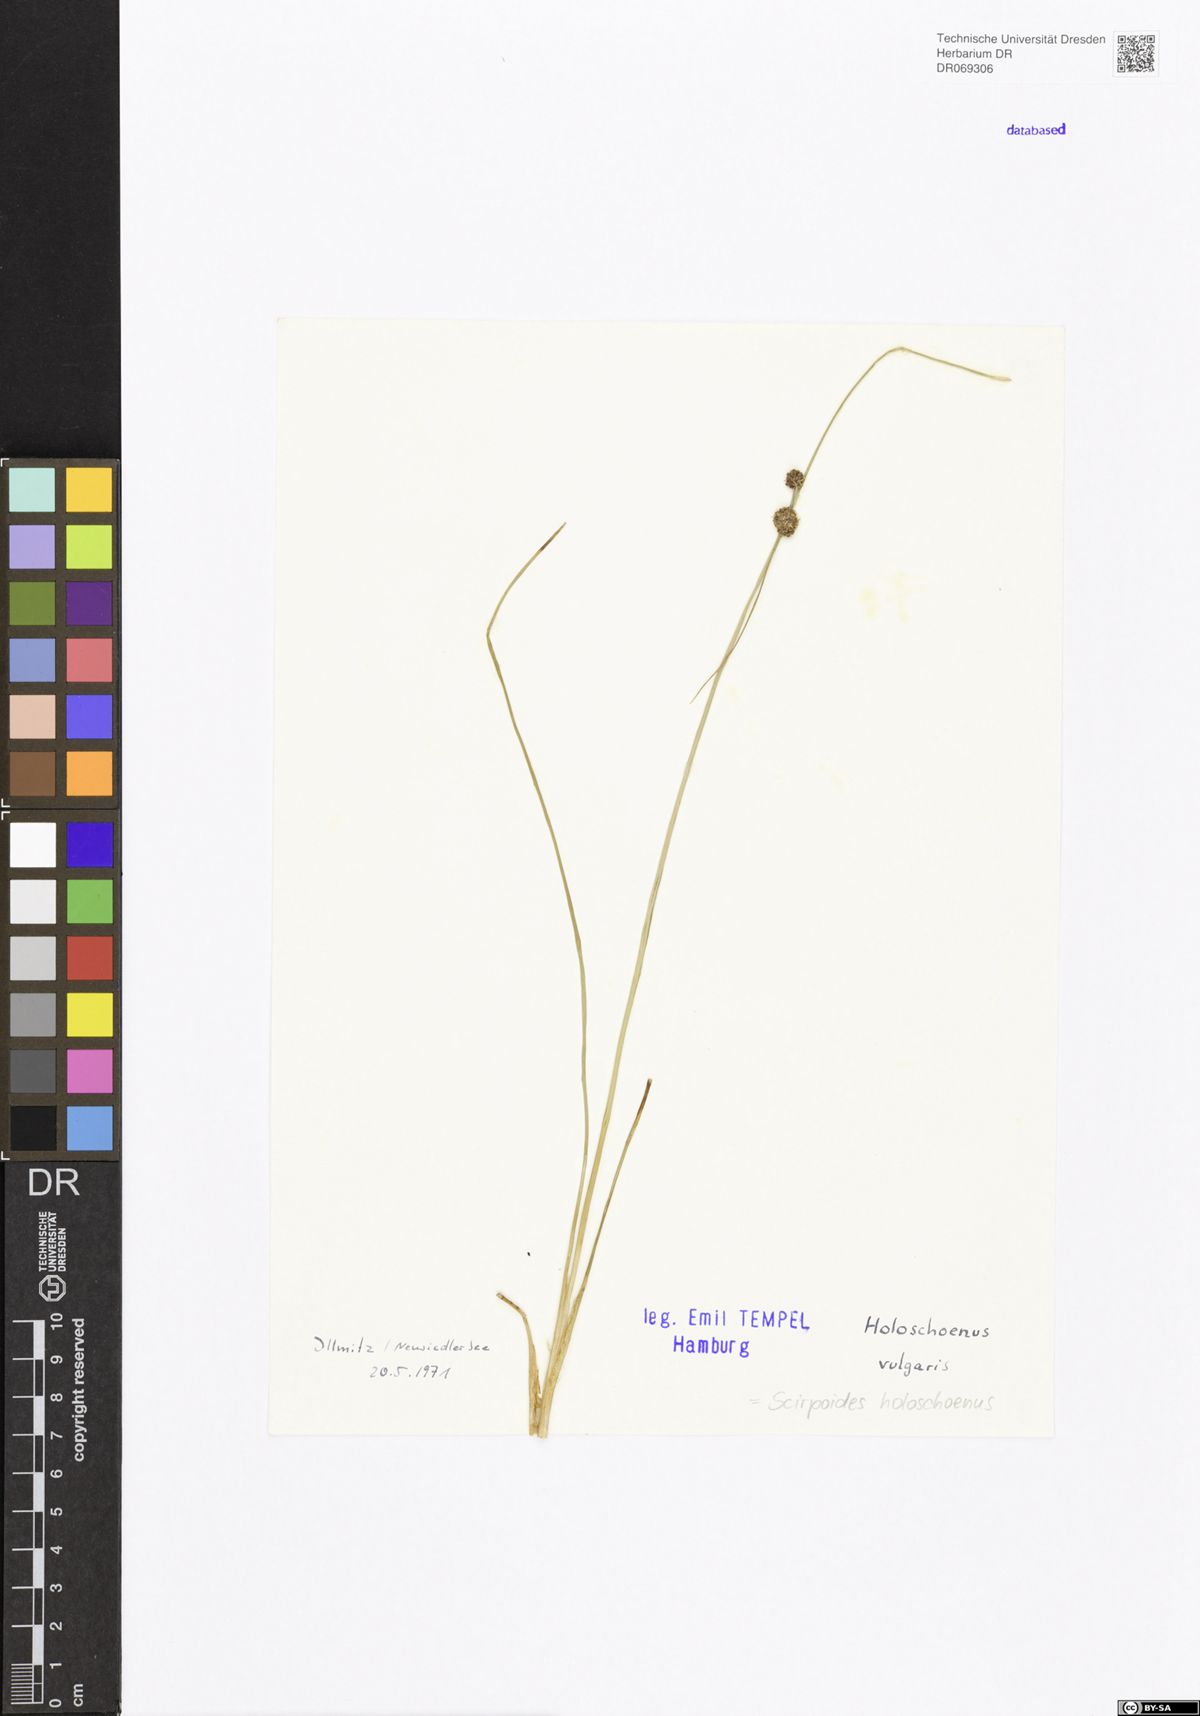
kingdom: Plantae
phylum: Tracheophyta
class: Liliopsida
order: Poales
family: Cyperaceae
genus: Scirpoides
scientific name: Scirpoides holoschoenus
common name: Round-headed club-rush
